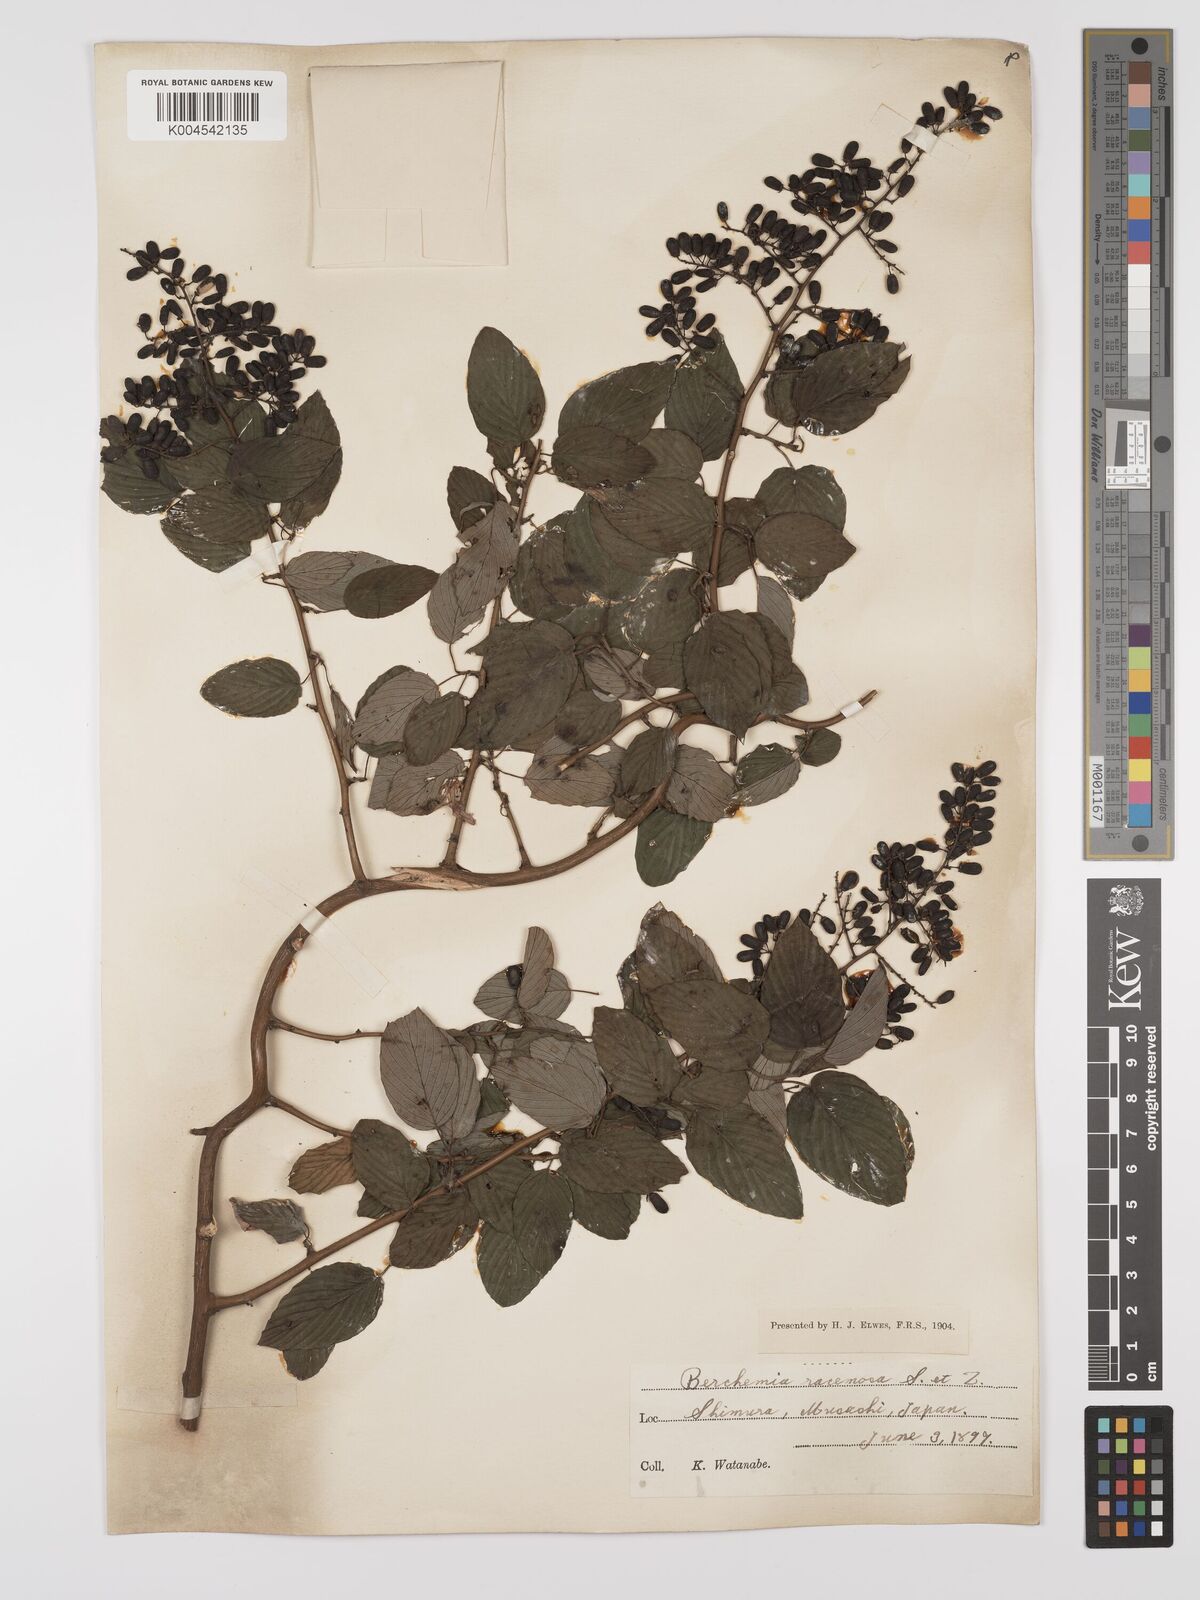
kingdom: Plantae
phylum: Tracheophyta
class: Magnoliopsida
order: Rosales
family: Rhamnaceae
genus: Berchemia
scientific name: Berchemia floribunda
